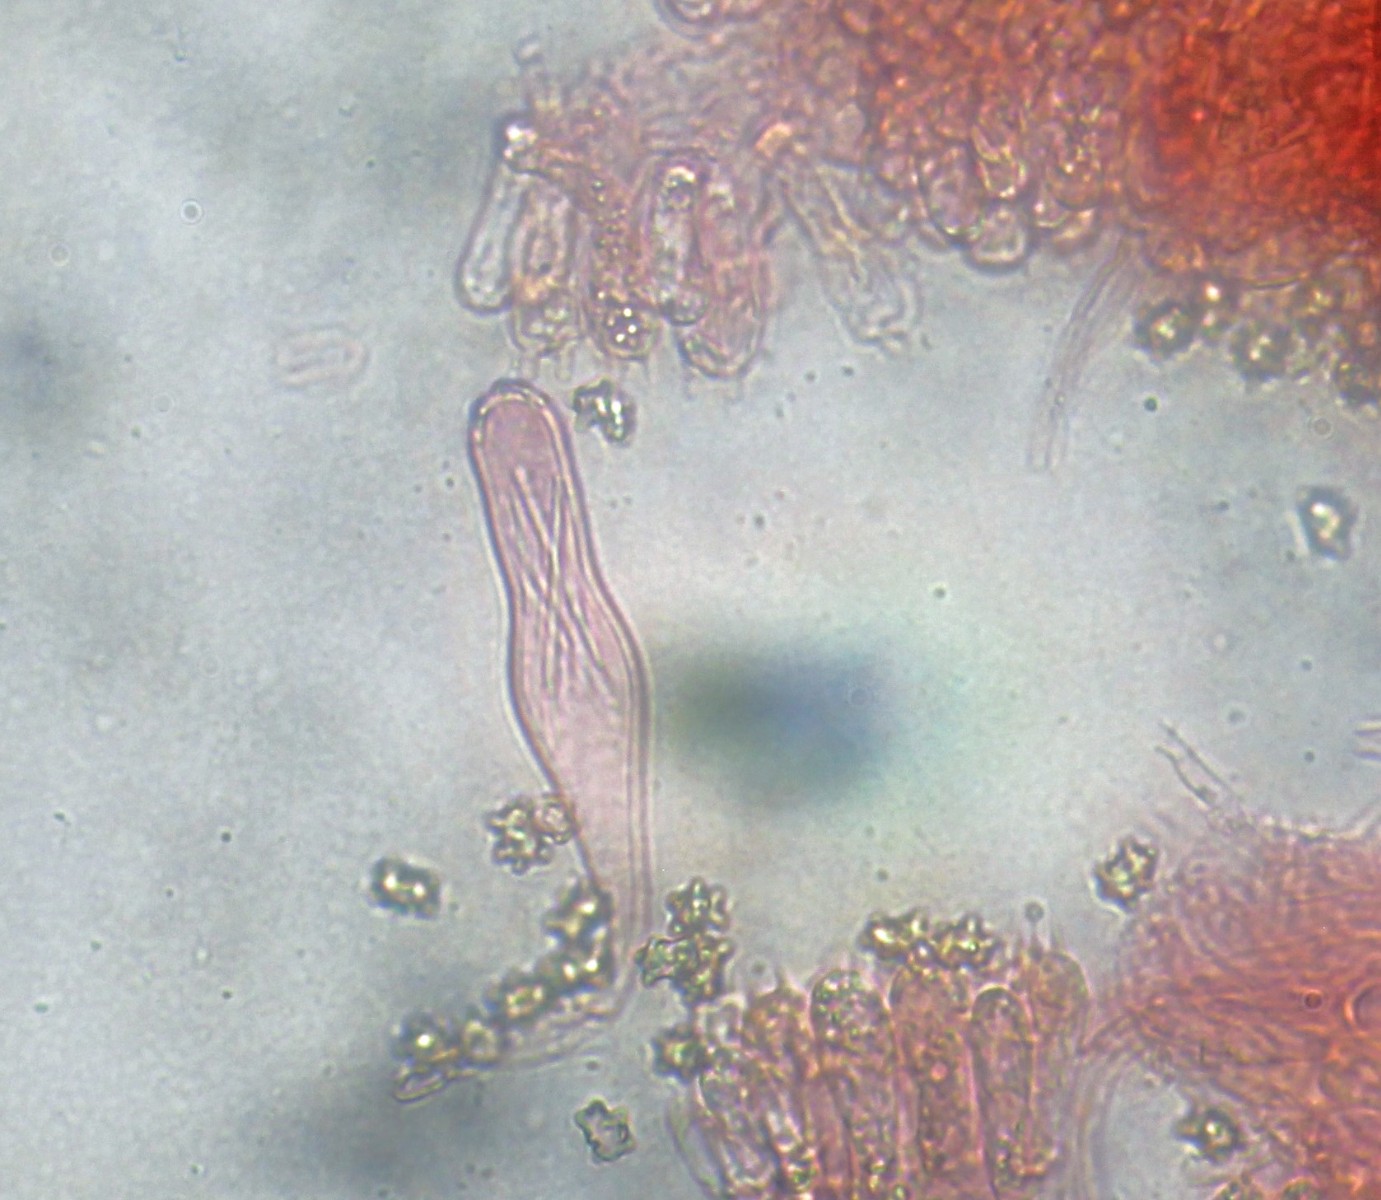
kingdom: Fungi
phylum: Basidiomycota
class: Agaricomycetes
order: Agaricales
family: Inocybaceae
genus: Inocybe
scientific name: Inocybe lanuginosa
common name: uldskællet trævlhat
